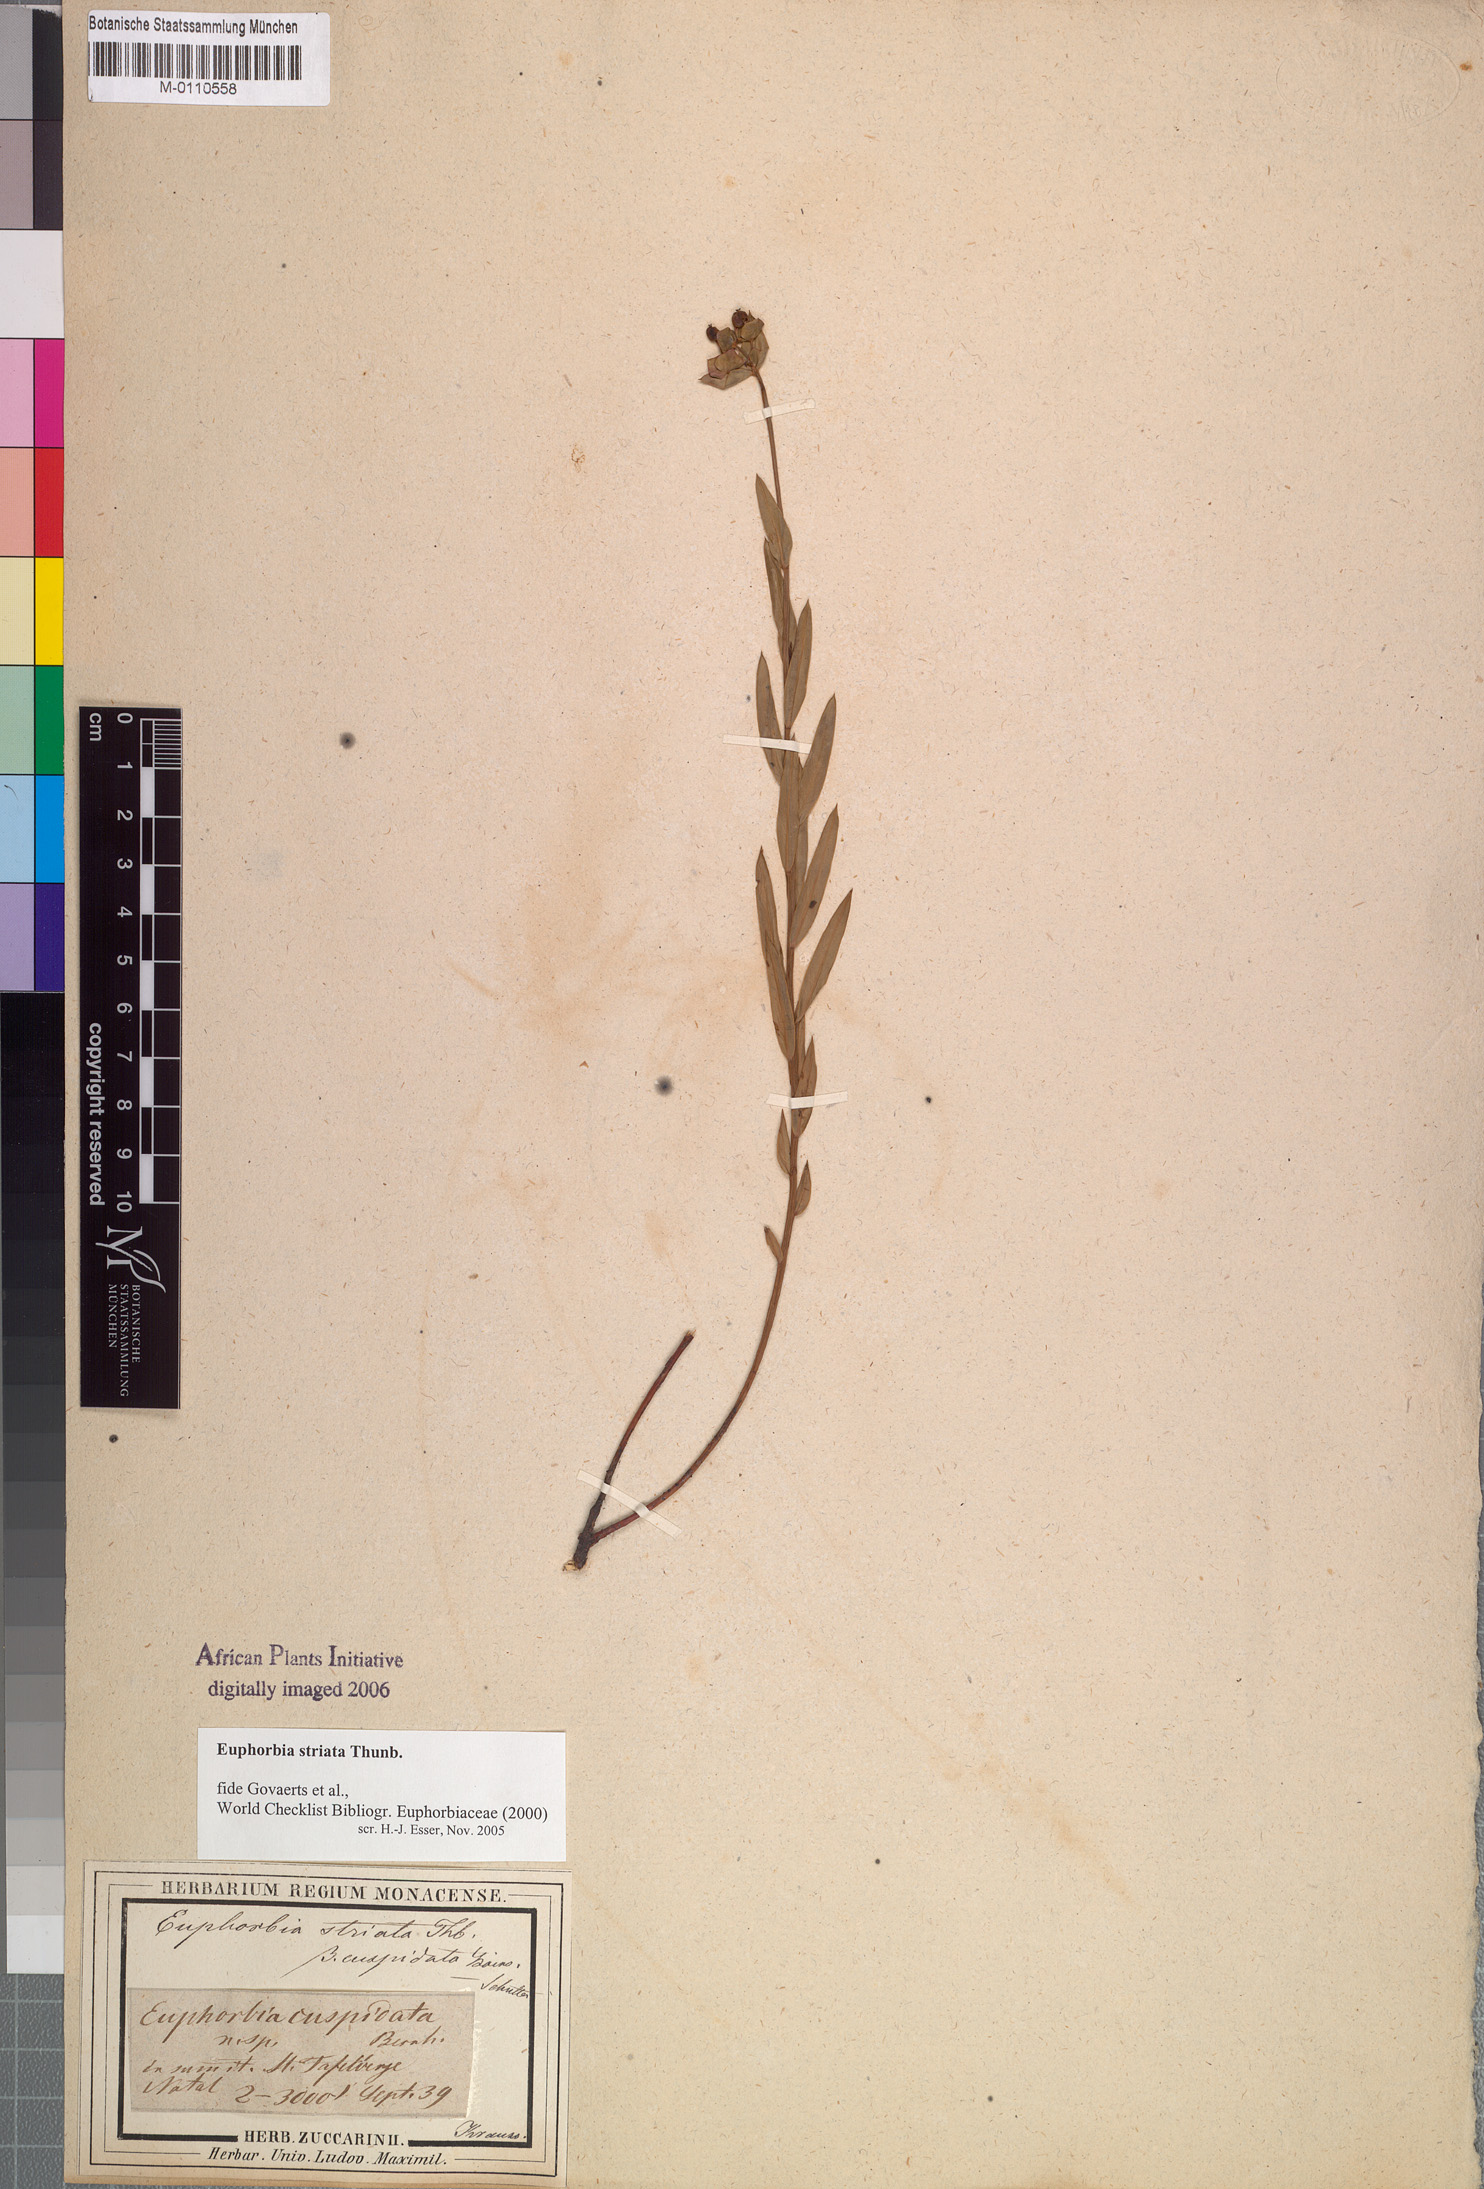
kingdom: Plantae
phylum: Tracheophyta
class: Magnoliopsida
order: Malpighiales
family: Euphorbiaceae
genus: Euphorbia
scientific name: Euphorbia striata
